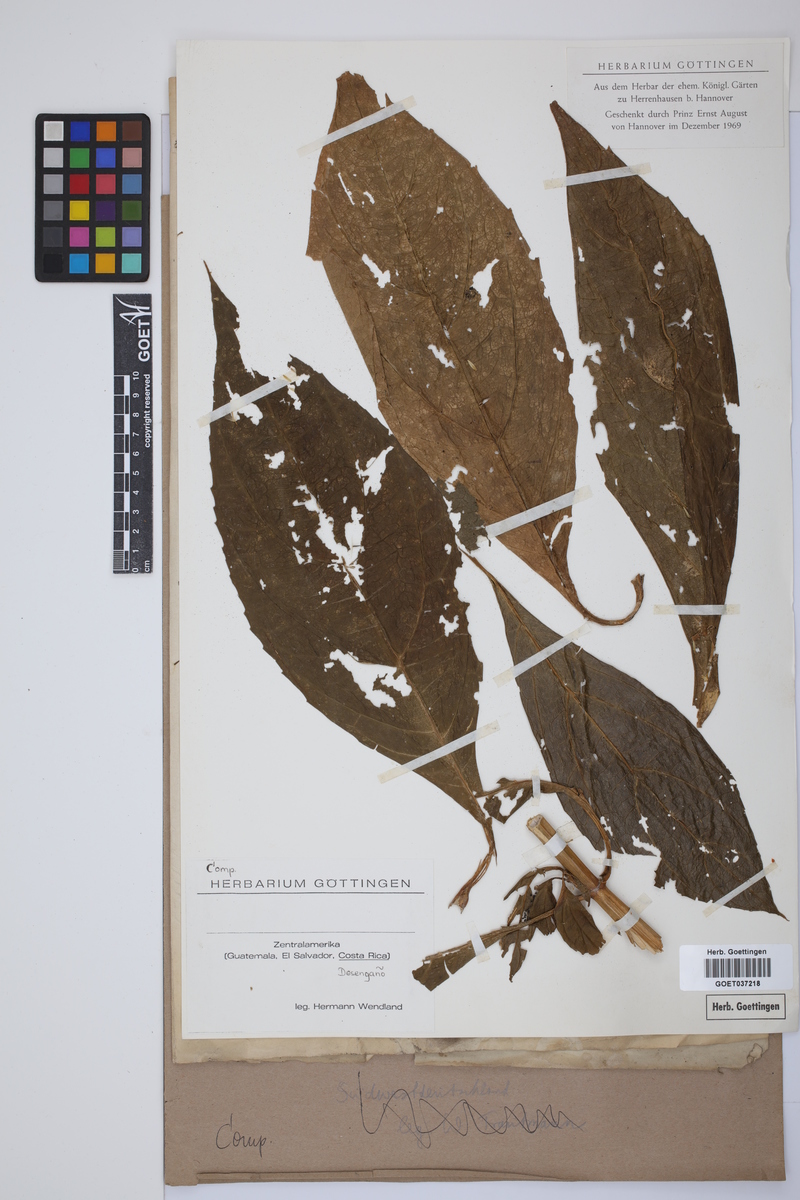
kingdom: Plantae
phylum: Tracheophyta
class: Magnoliopsida
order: Asterales
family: Asteraceae
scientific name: Asteraceae
